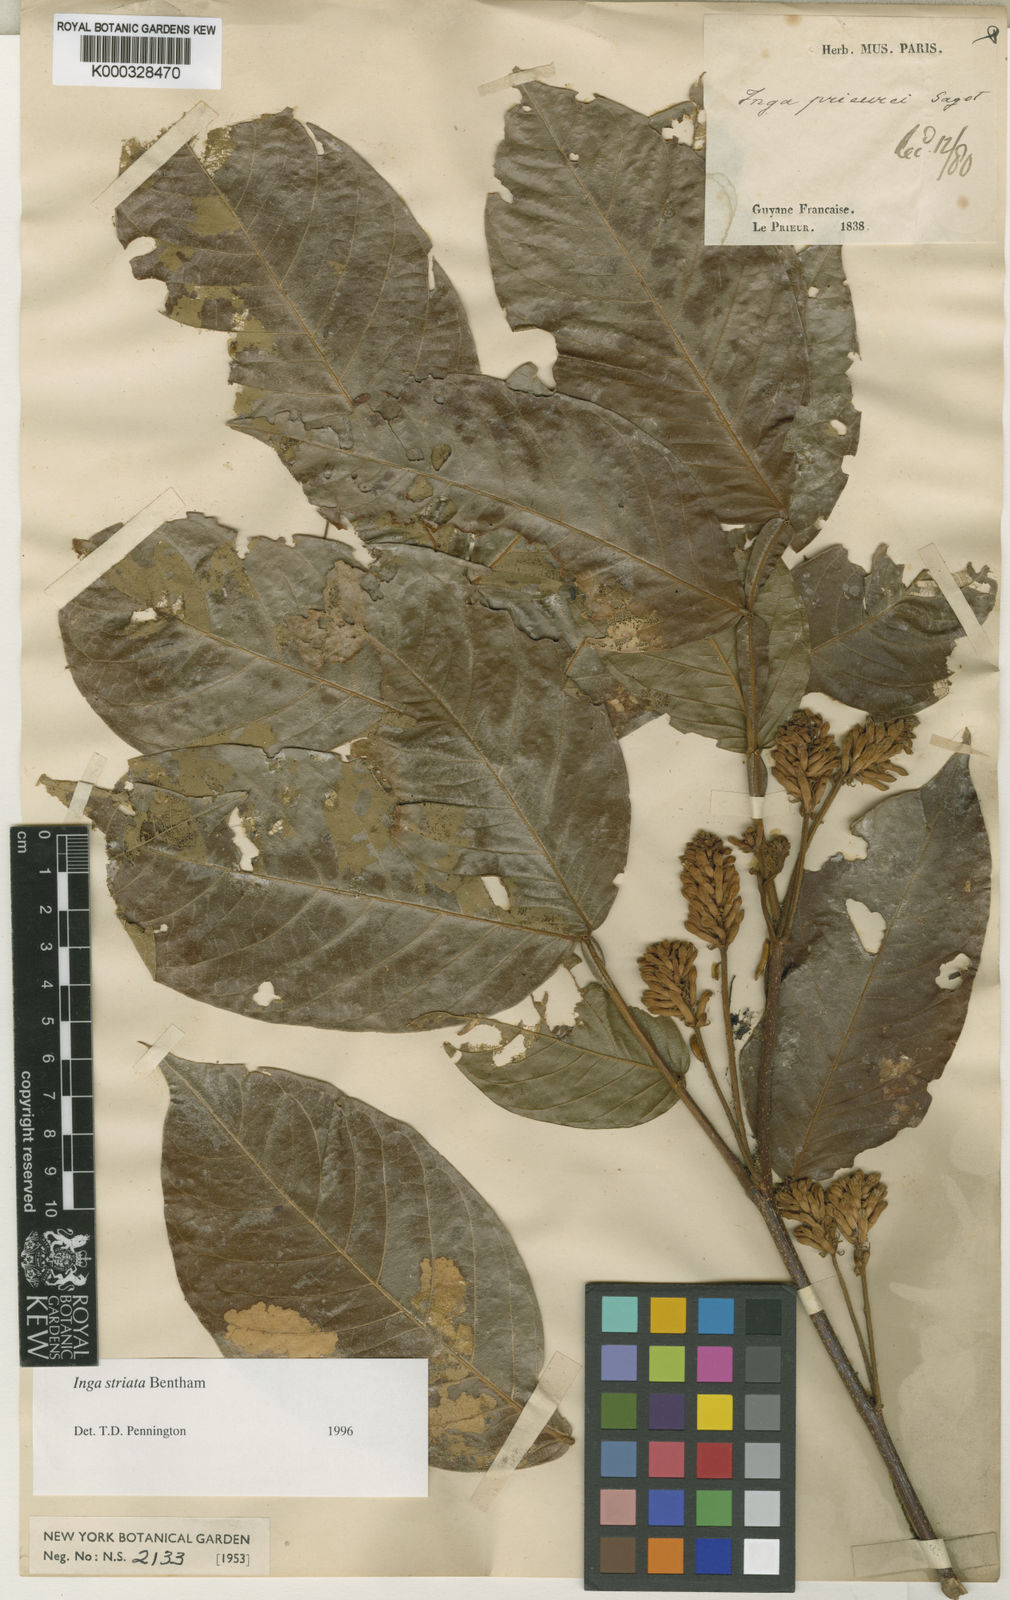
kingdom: Plantae
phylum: Tracheophyta
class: Magnoliopsida
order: Fabales
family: Fabaceae
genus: Inga
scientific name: Inga striata
